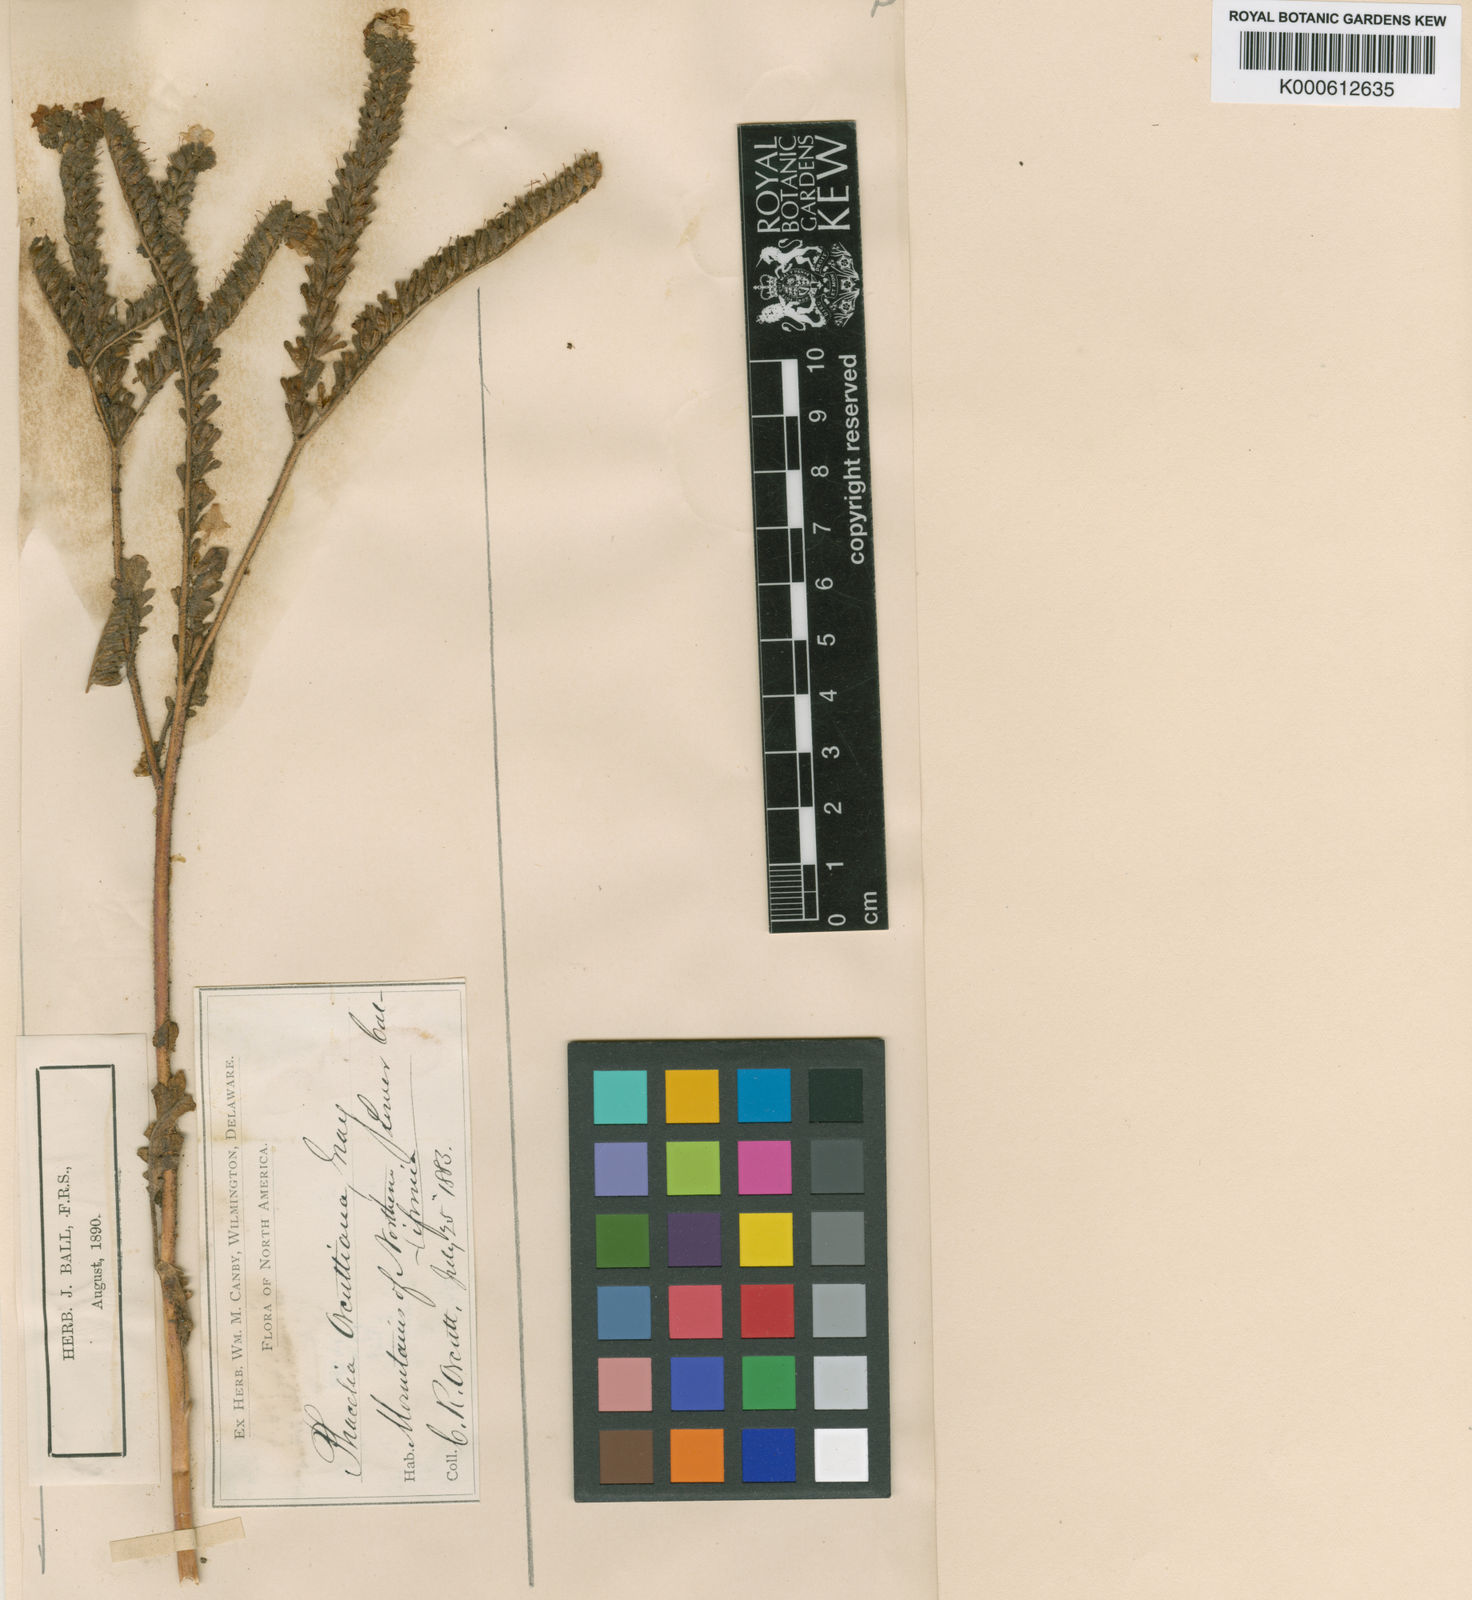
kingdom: Plantae
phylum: Tracheophyta
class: Magnoliopsida
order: Boraginales
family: Hydrophyllaceae
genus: Phacelia
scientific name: Phacelia brachyloba
